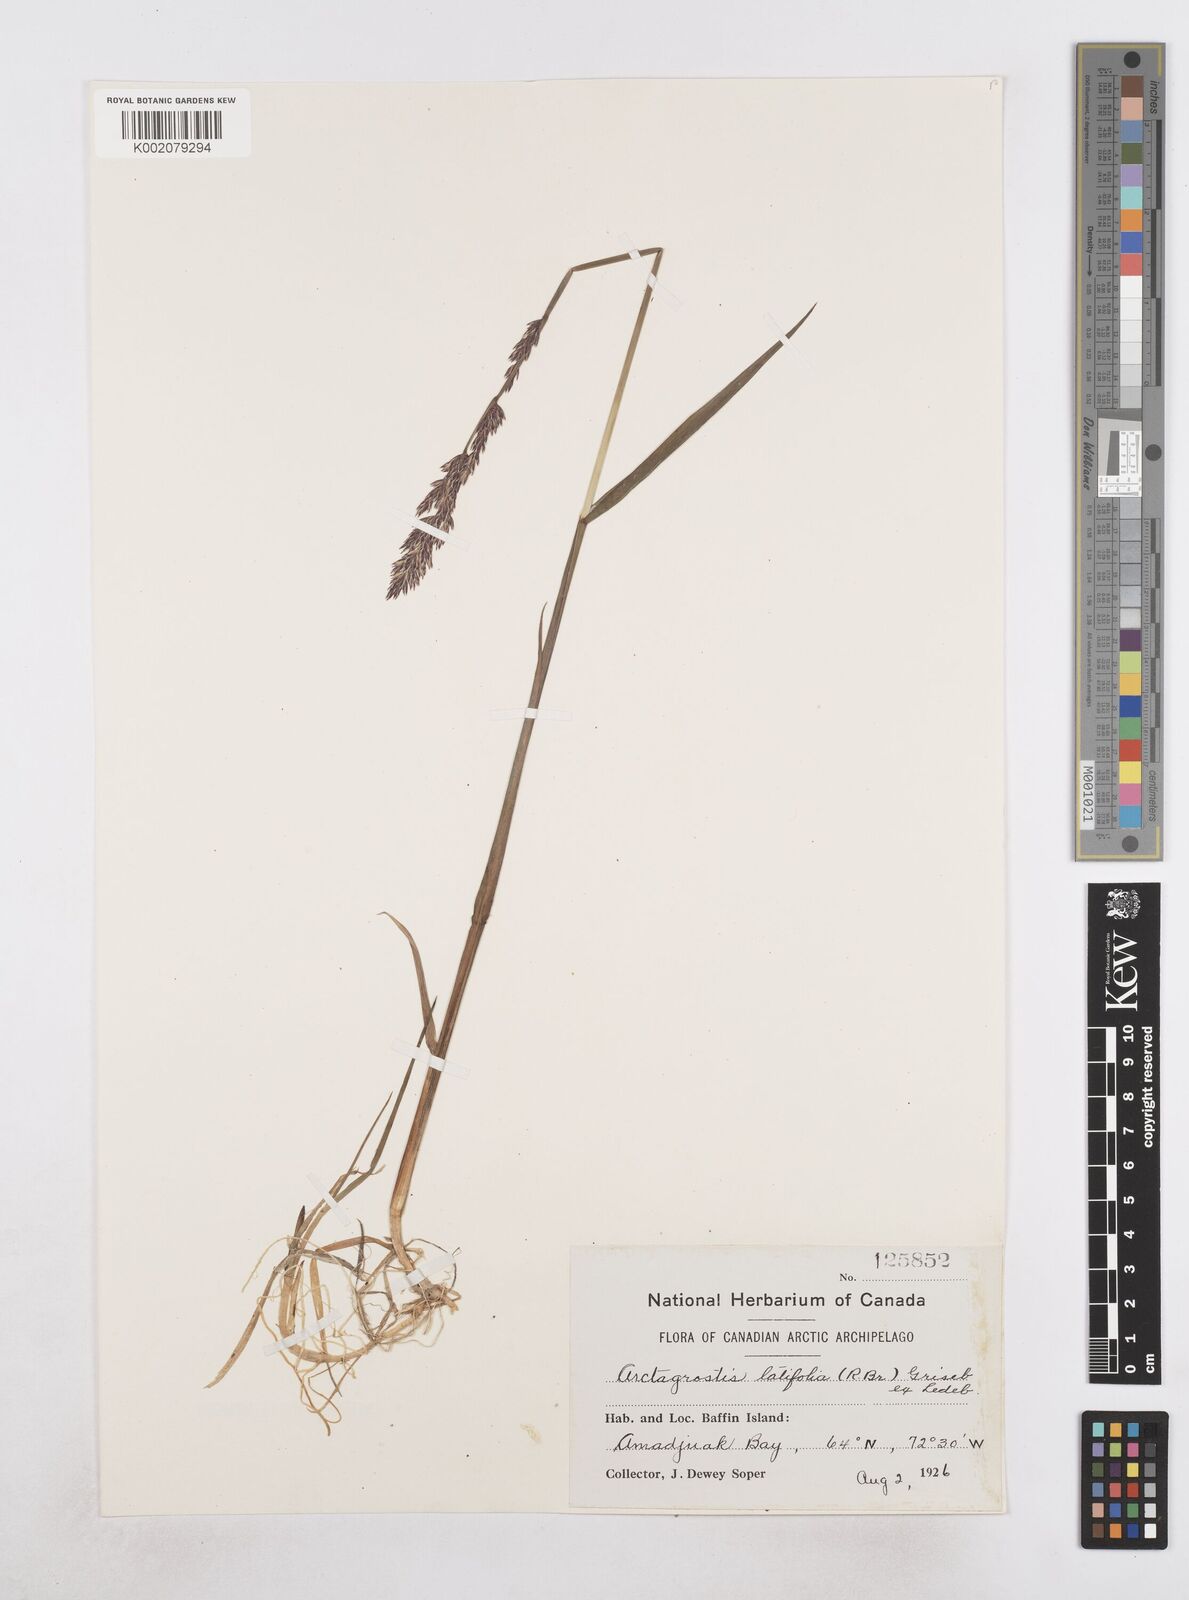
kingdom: Plantae
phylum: Tracheophyta
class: Liliopsida
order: Poales
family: Poaceae
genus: Arctagrostis
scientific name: Arctagrostis latifolia
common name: Arctic grass
